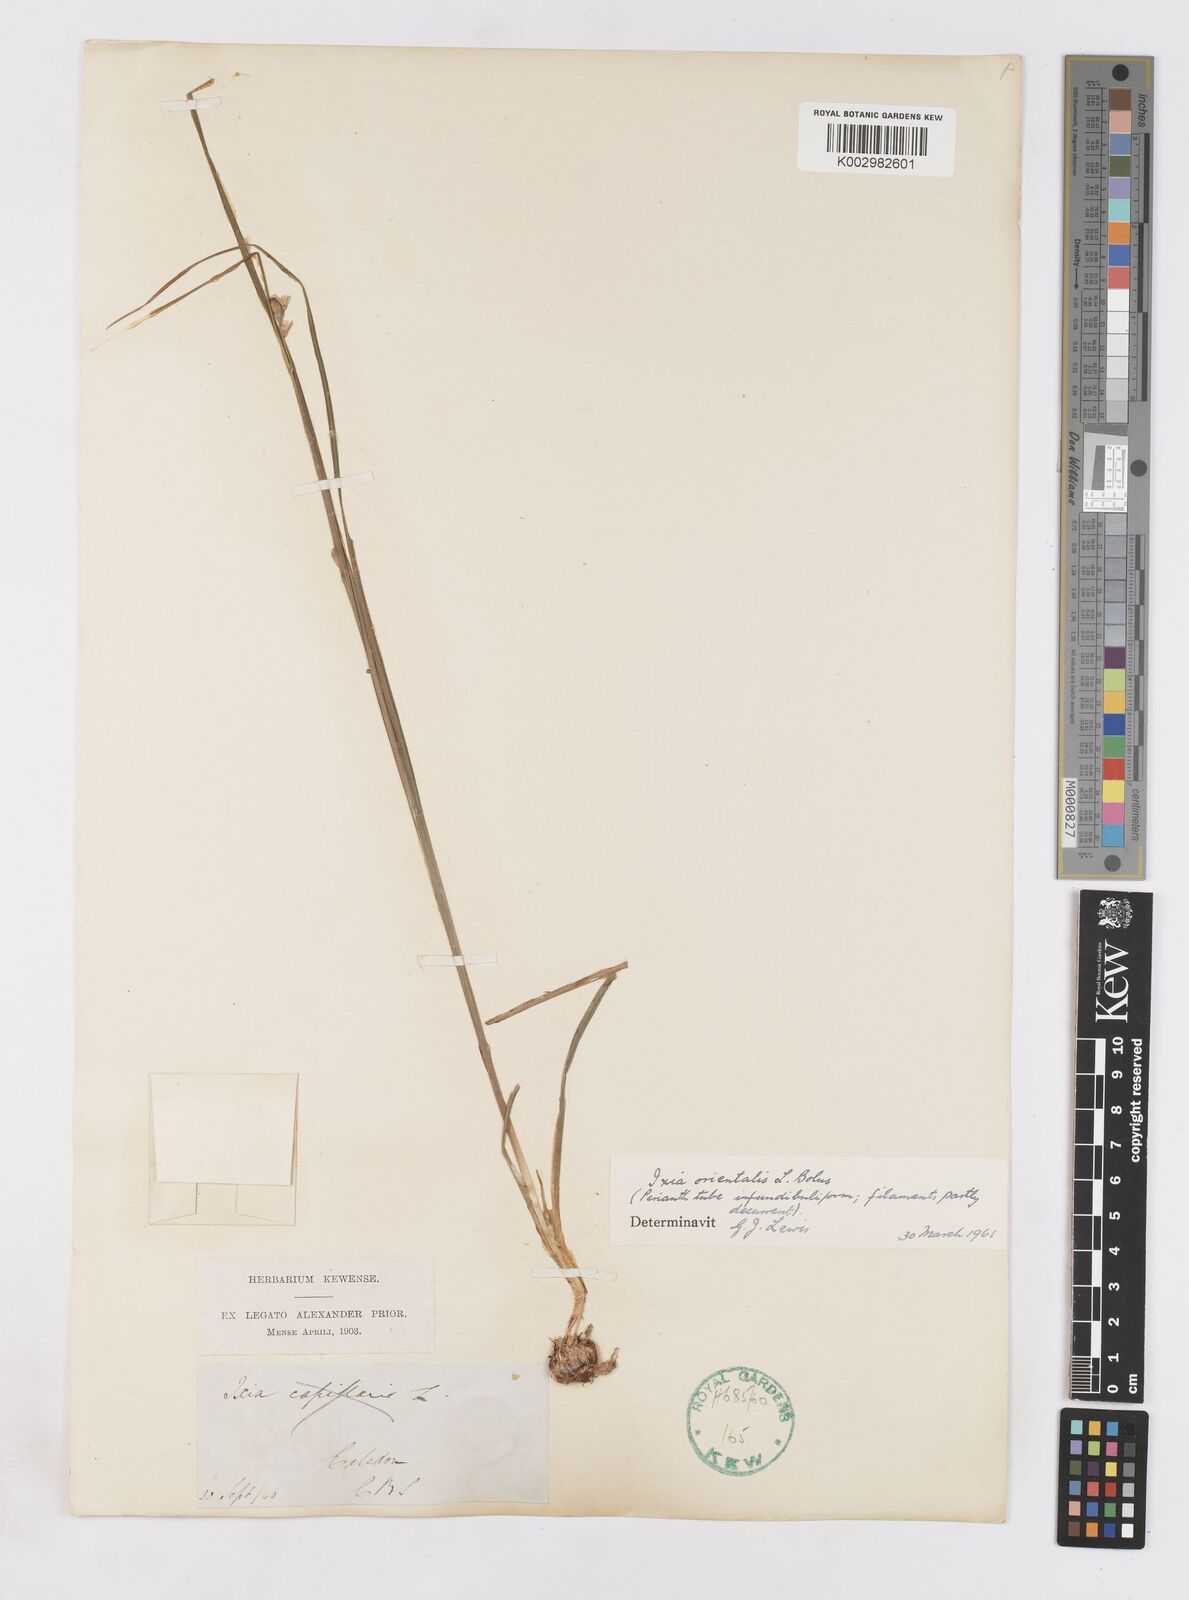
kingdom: Plantae
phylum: Tracheophyta
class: Liliopsida
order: Asparagales
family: Iridaceae
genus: Ixia
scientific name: Ixia orientalis
